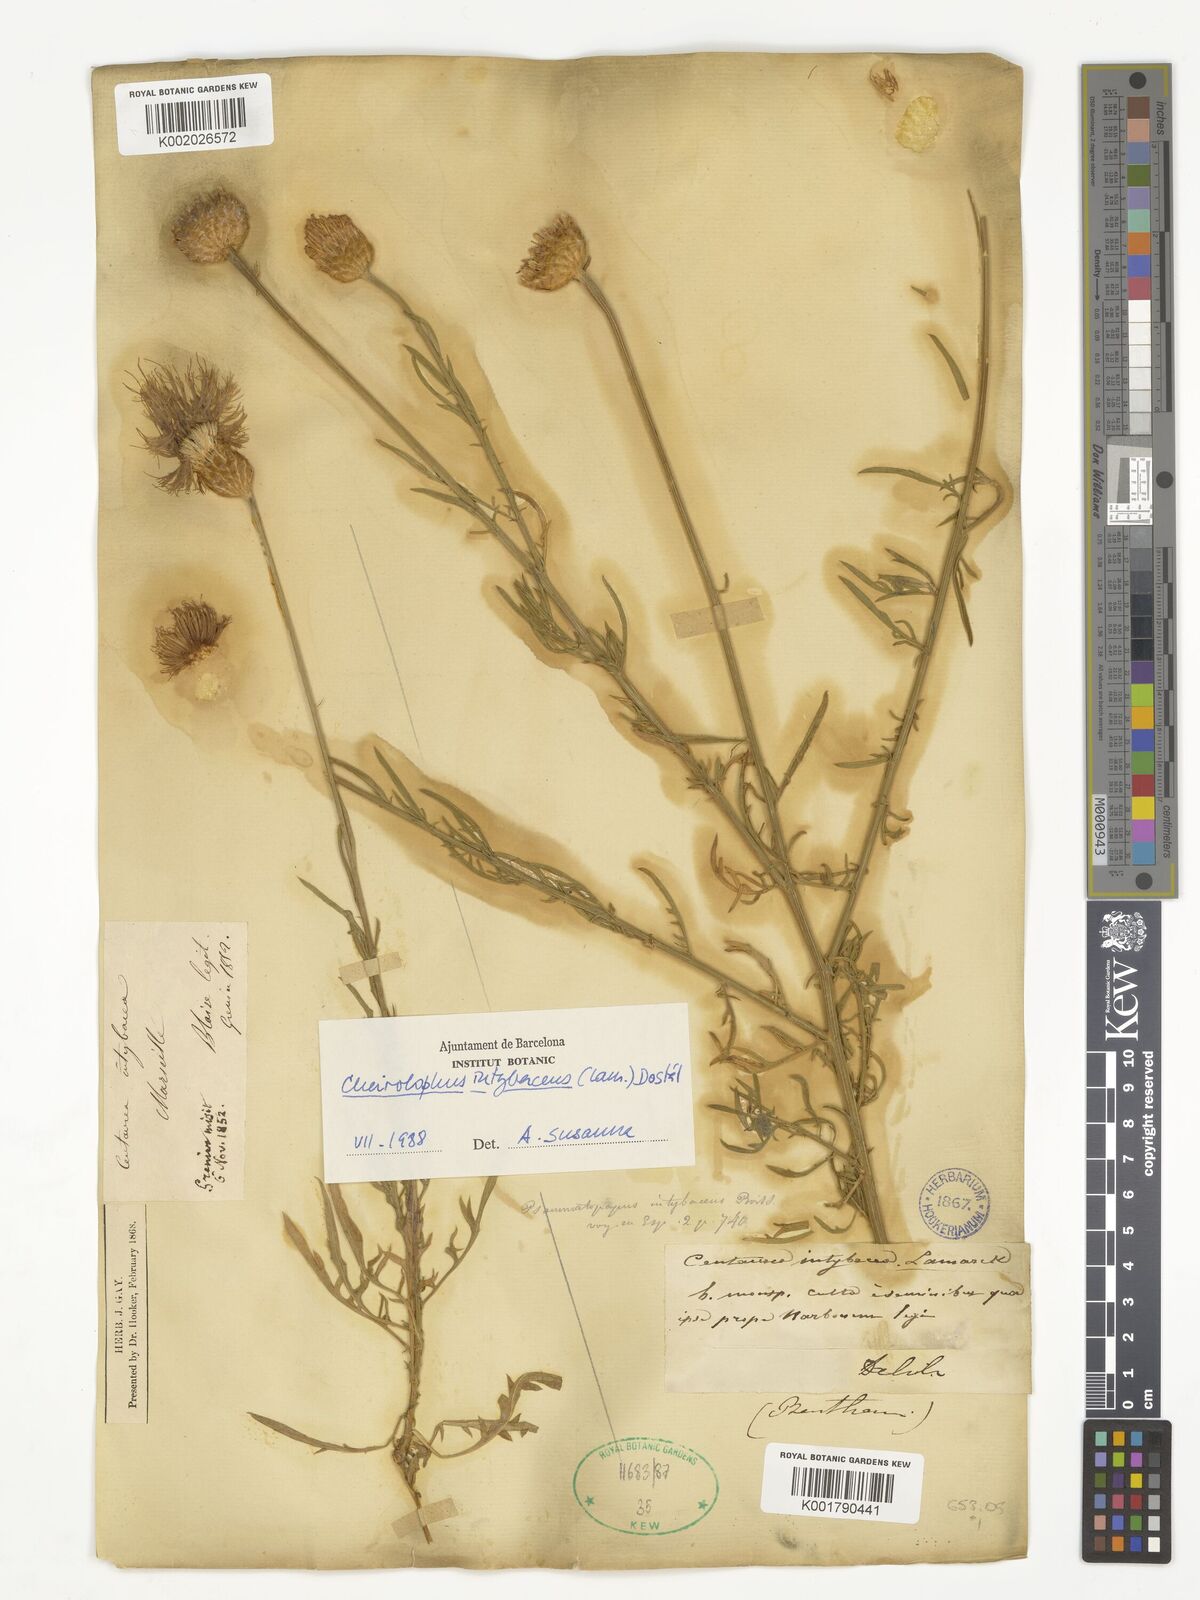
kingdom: Plantae
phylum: Tracheophyta
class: Magnoliopsida
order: Asterales
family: Asteraceae
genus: Cheirolophus
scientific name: Cheirolophus intybaceus
